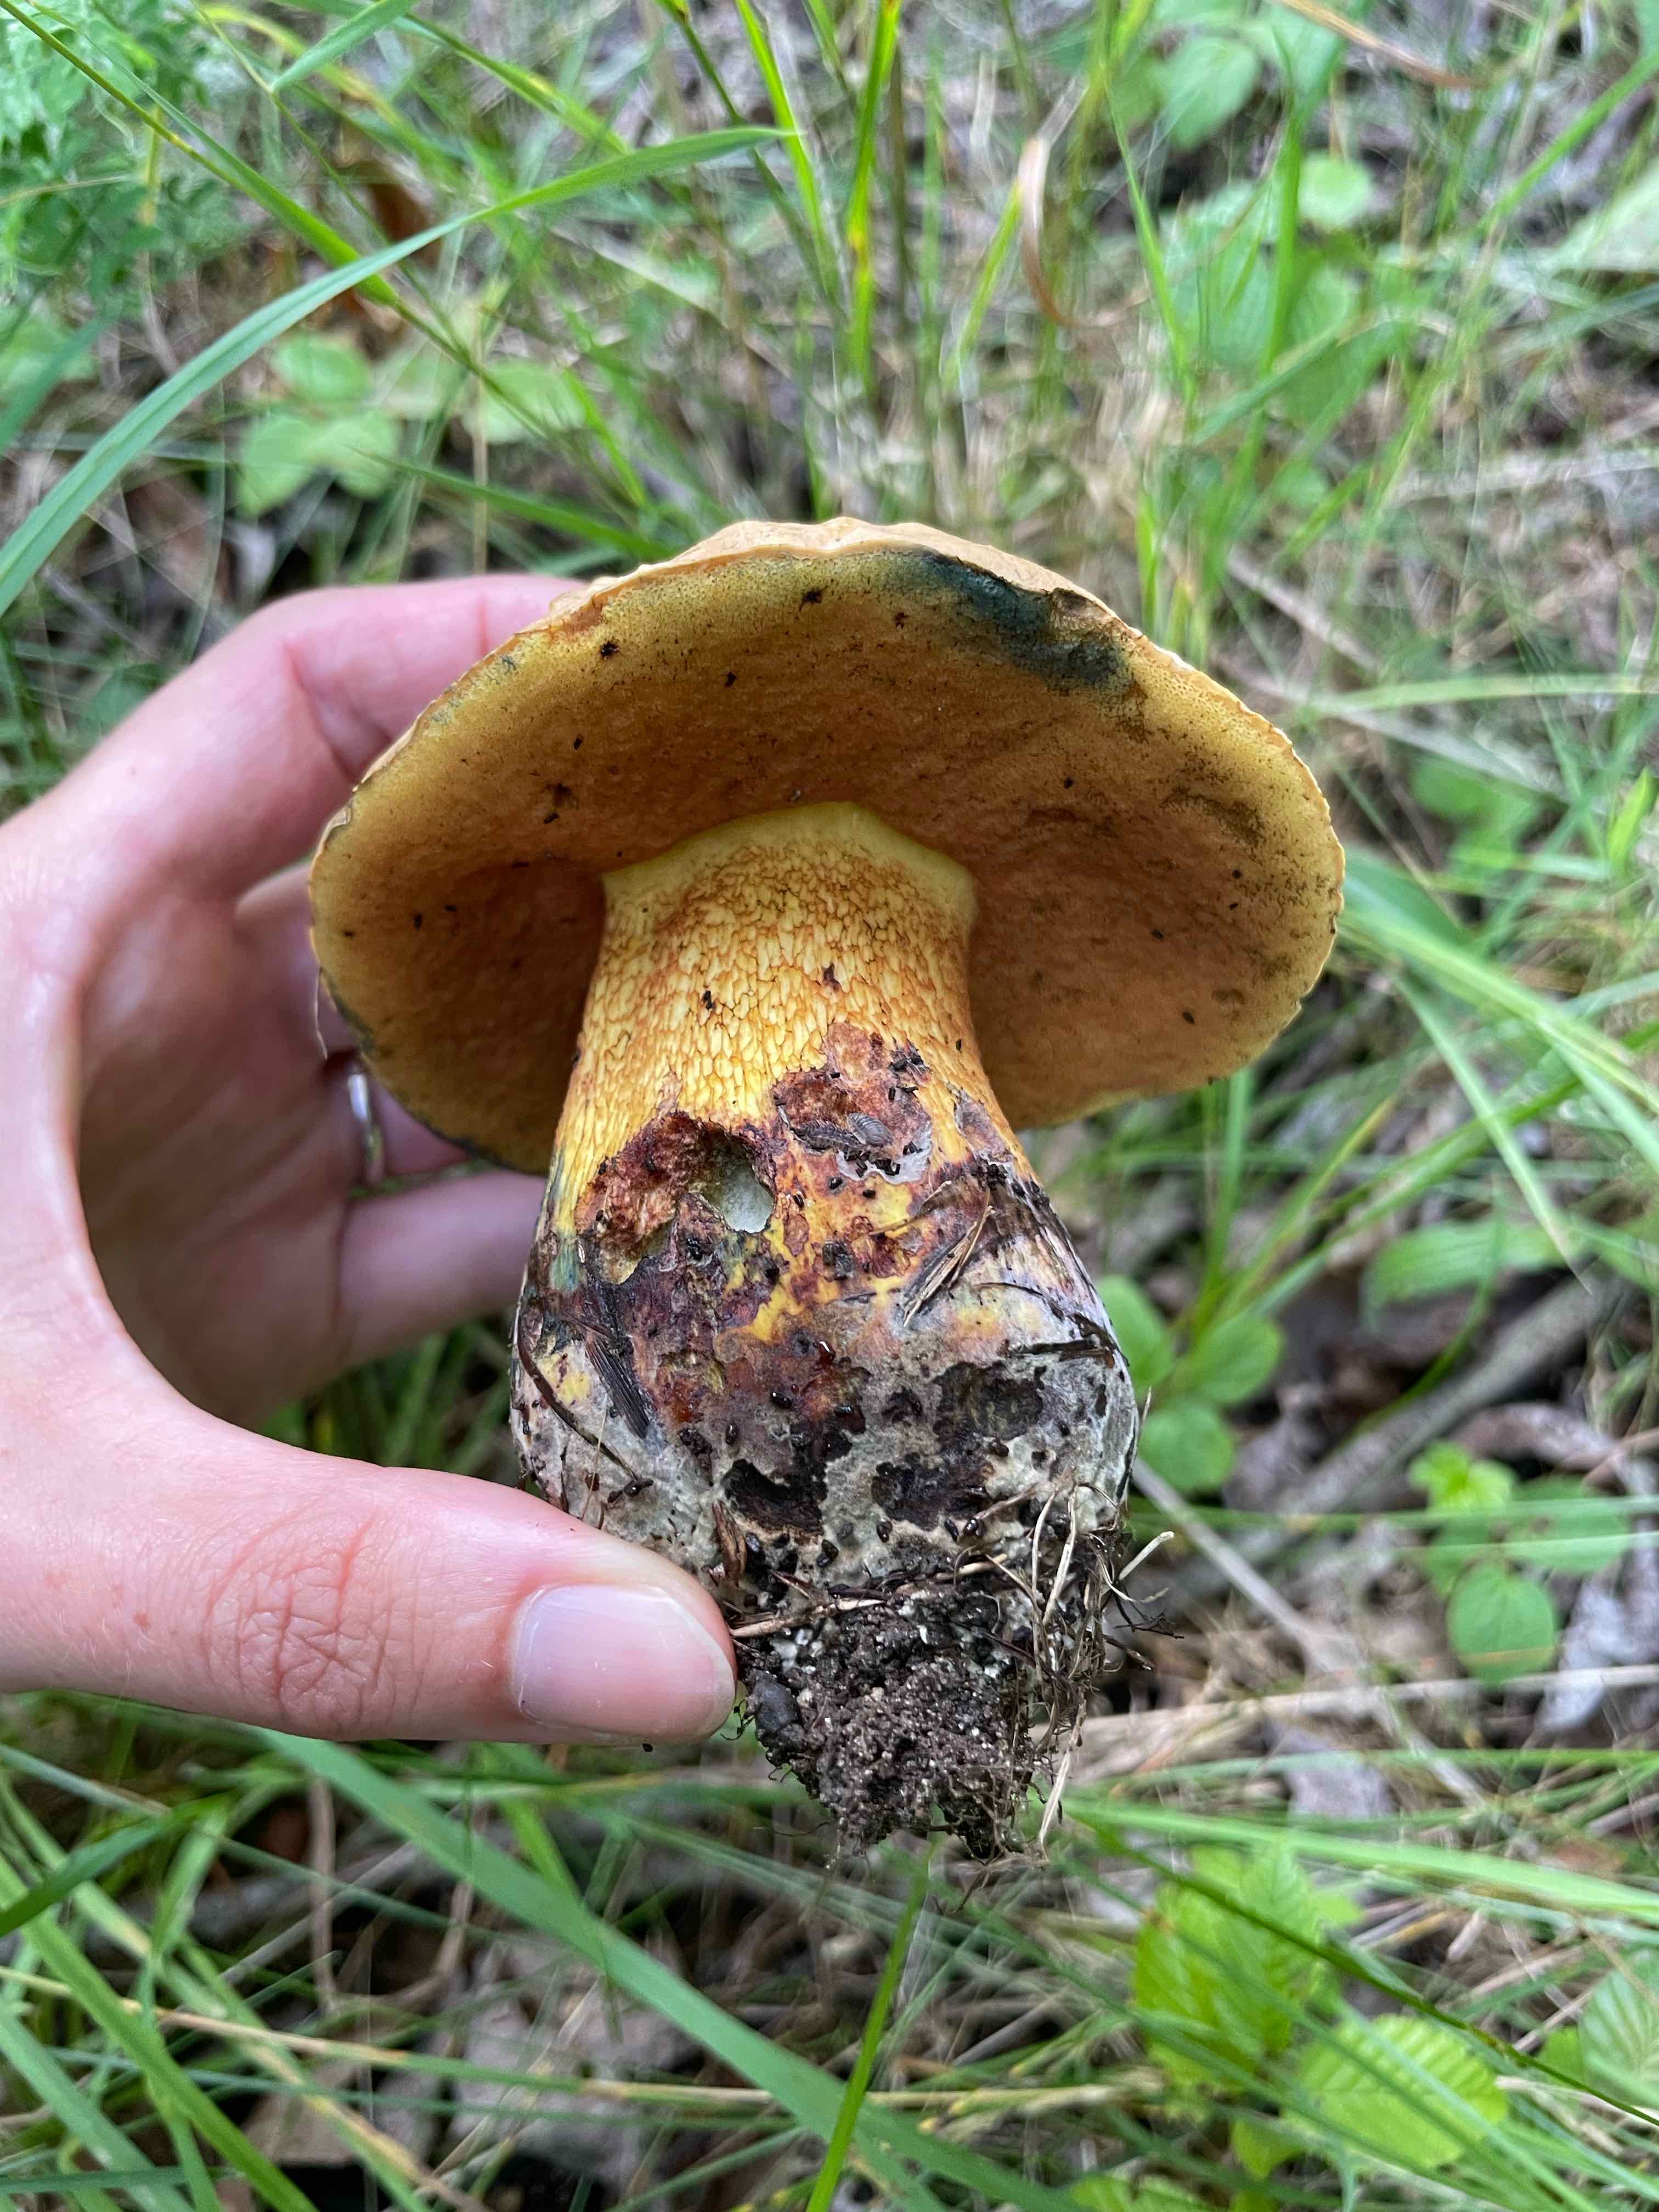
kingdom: Fungi
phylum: Basidiomycota
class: Agaricomycetes
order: Boletales
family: Boletaceae
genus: Suillellus
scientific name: Suillellus luridus
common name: netstokket indigorørhat
